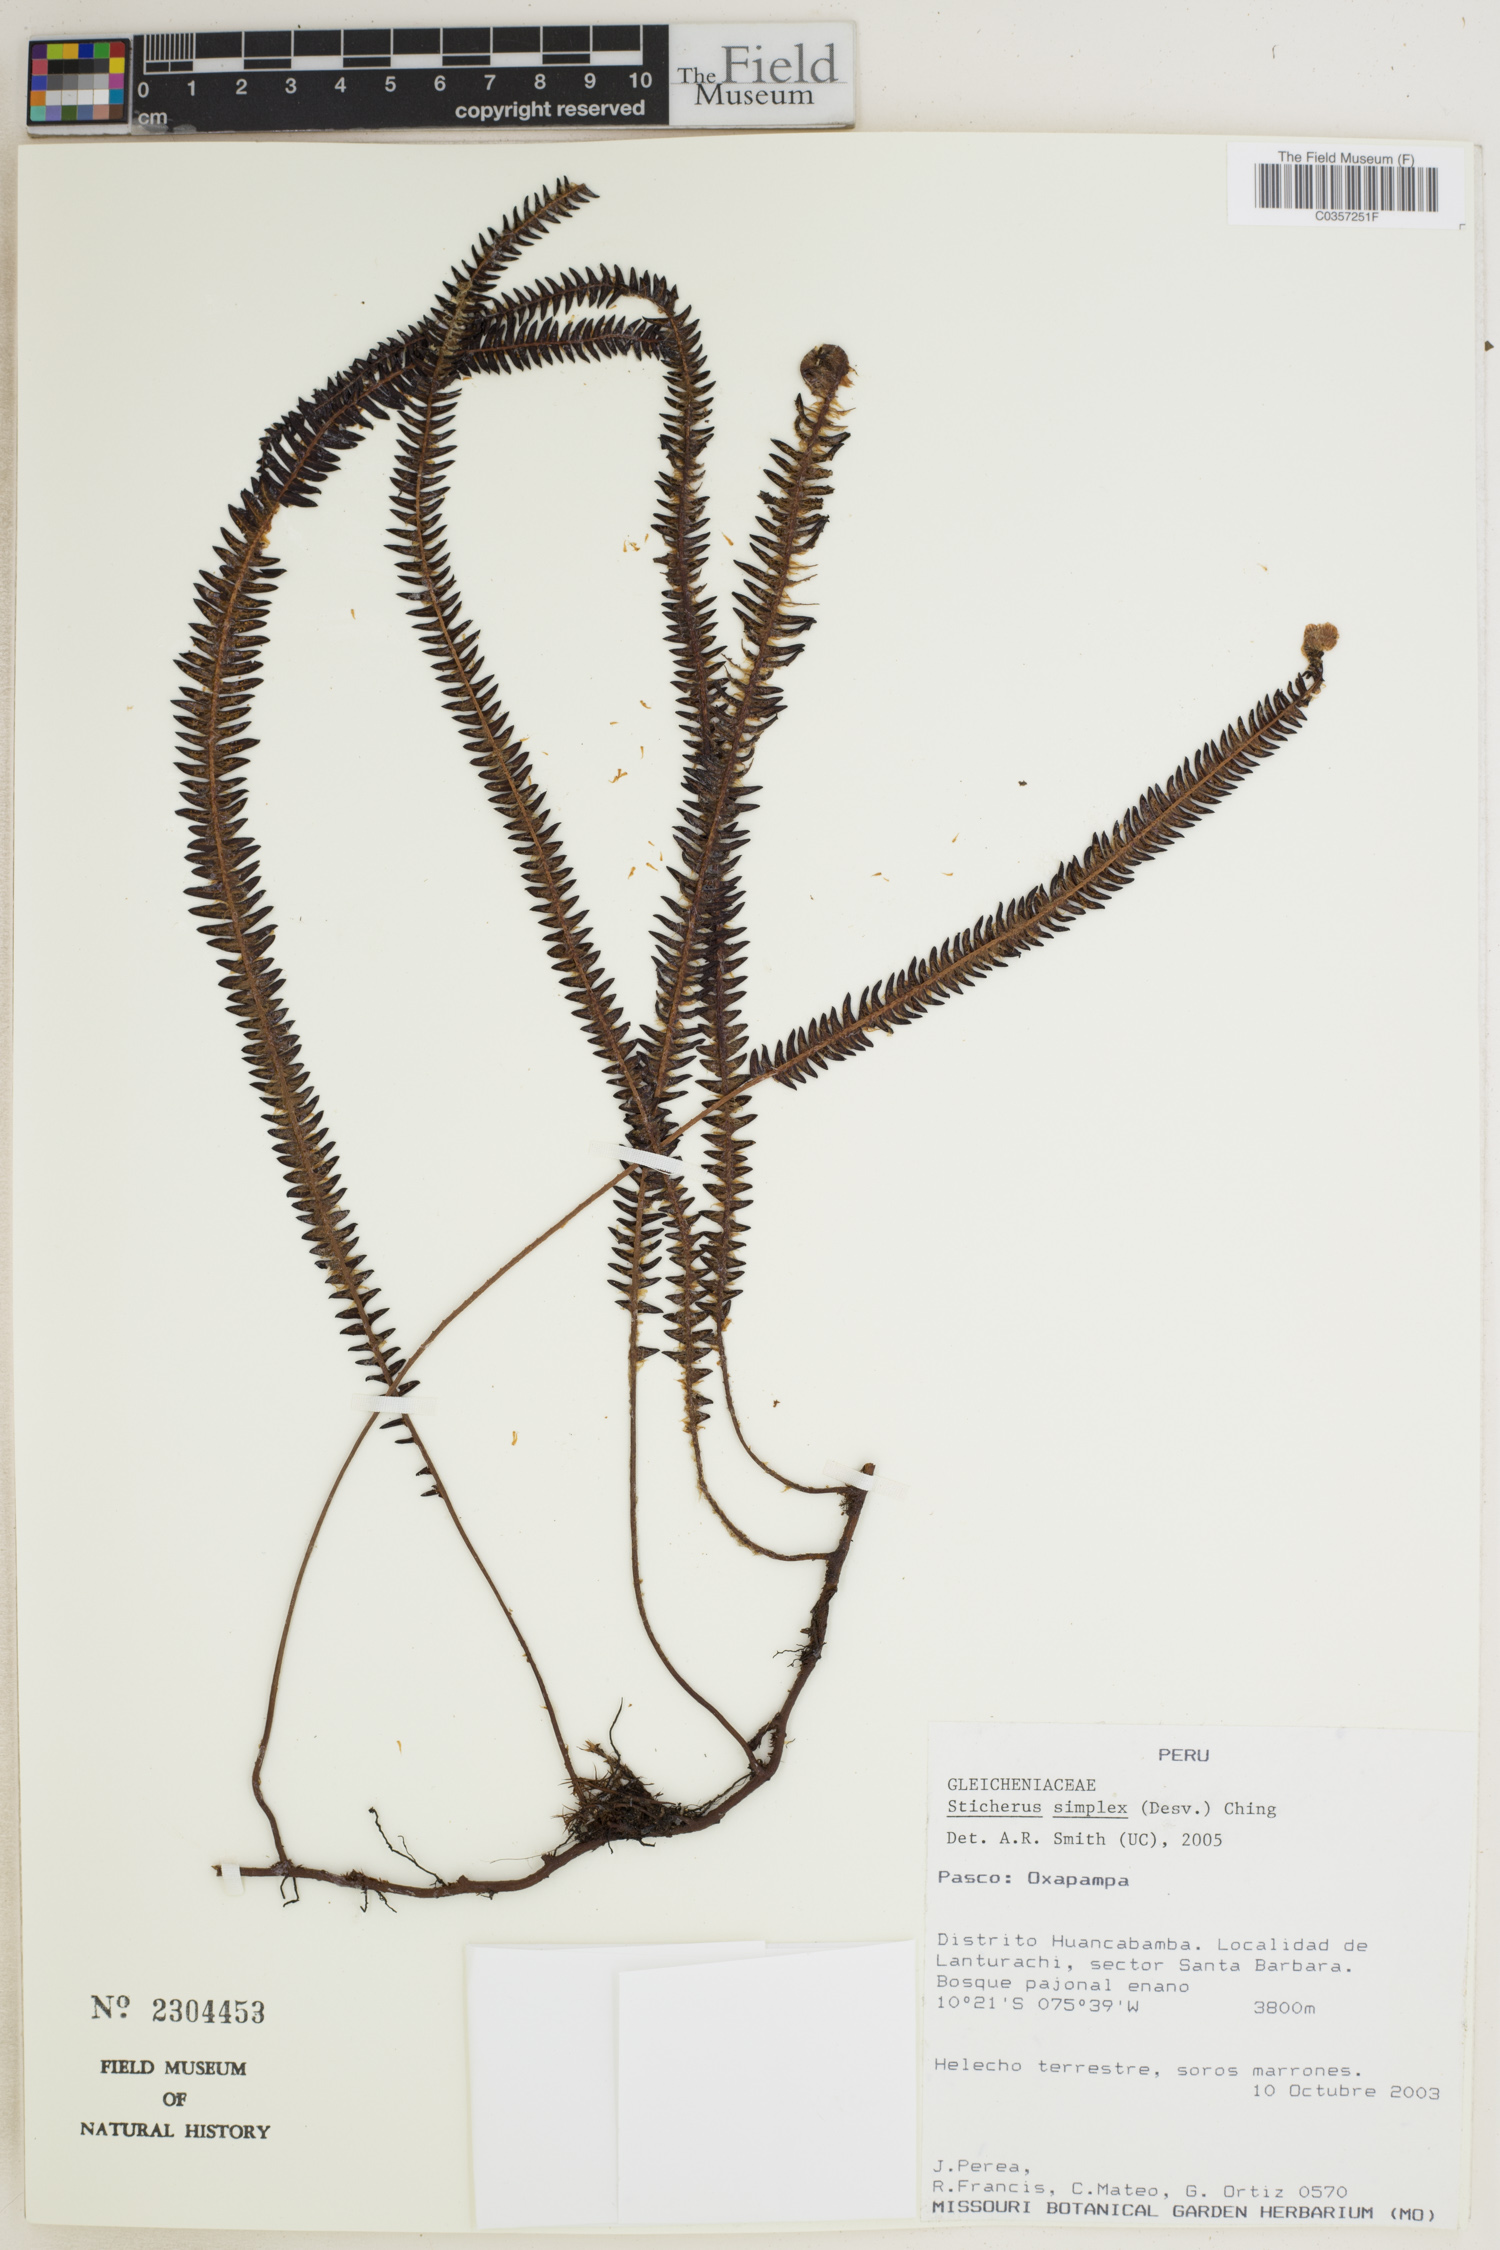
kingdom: Plantae
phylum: Tracheophyta
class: Polypodiopsida
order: Gleicheniales
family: Gleicheniaceae
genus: Sticherus
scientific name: Sticherus simplex
